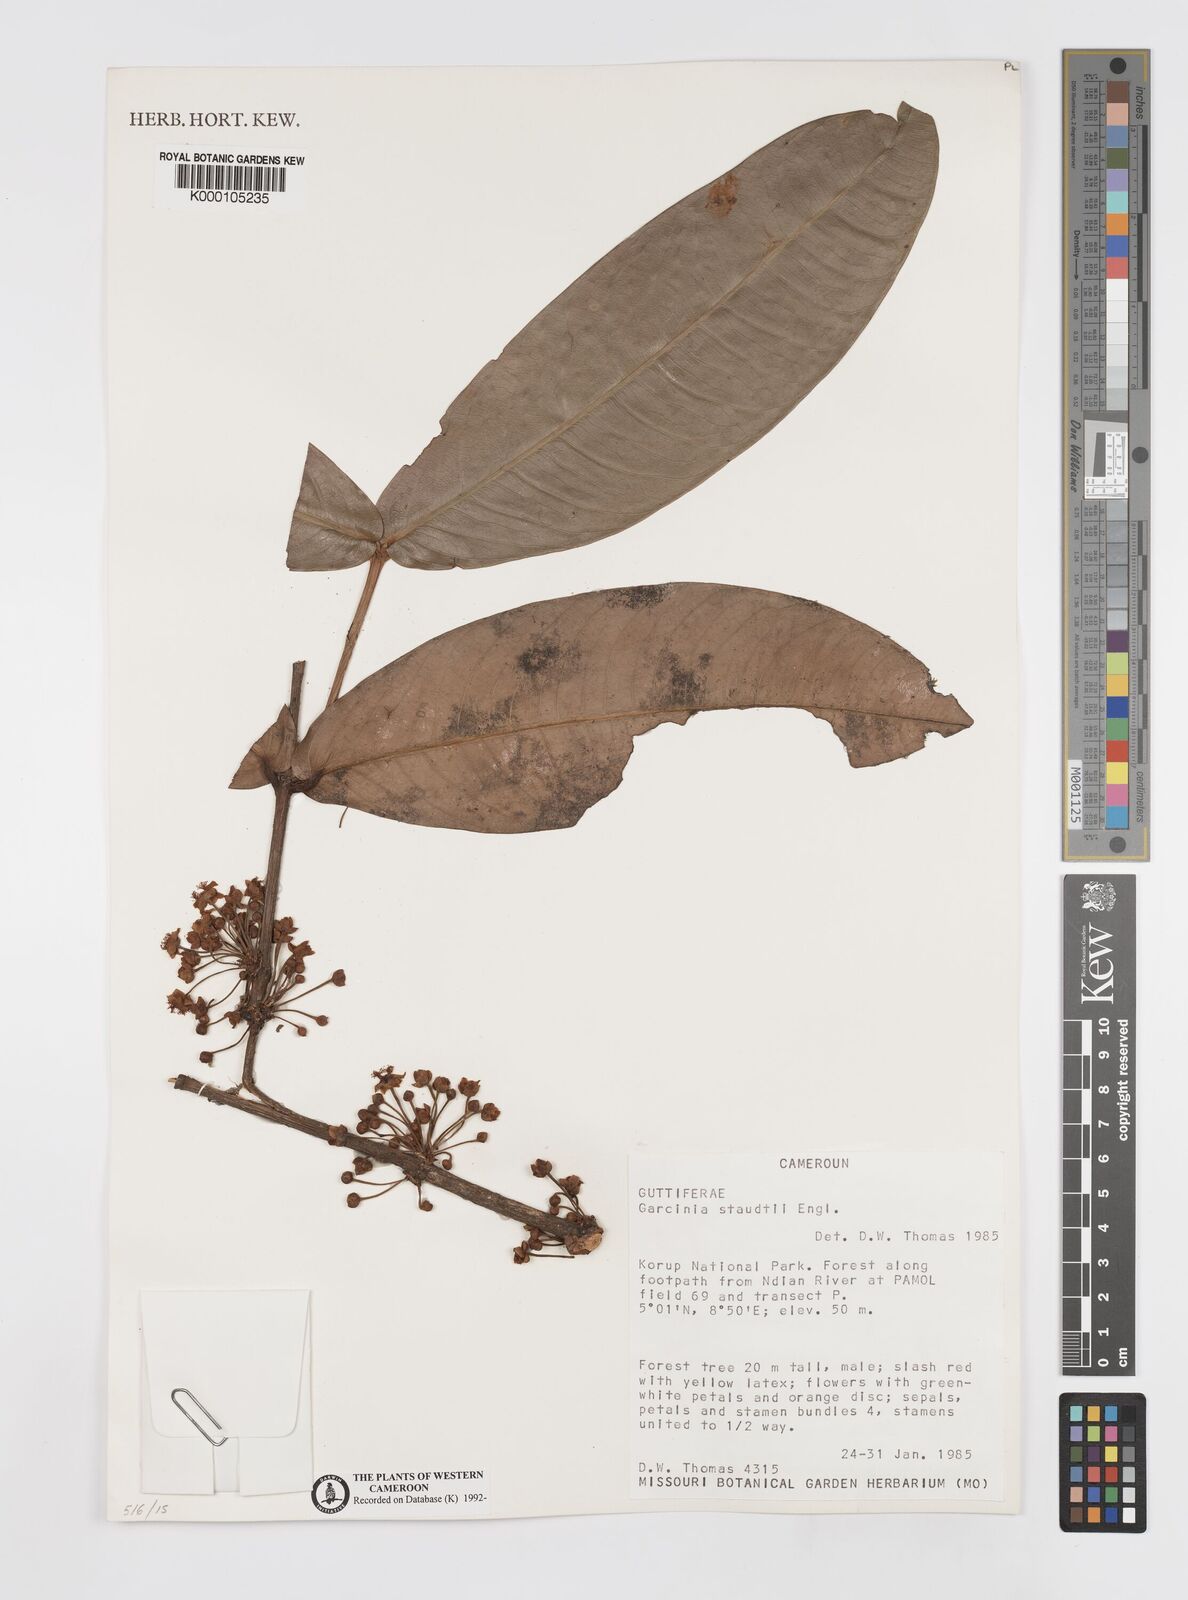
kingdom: Plantae
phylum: Tracheophyta
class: Magnoliopsida
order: Malpighiales
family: Clusiaceae
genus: Garcinia
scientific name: Garcinia staudtii
